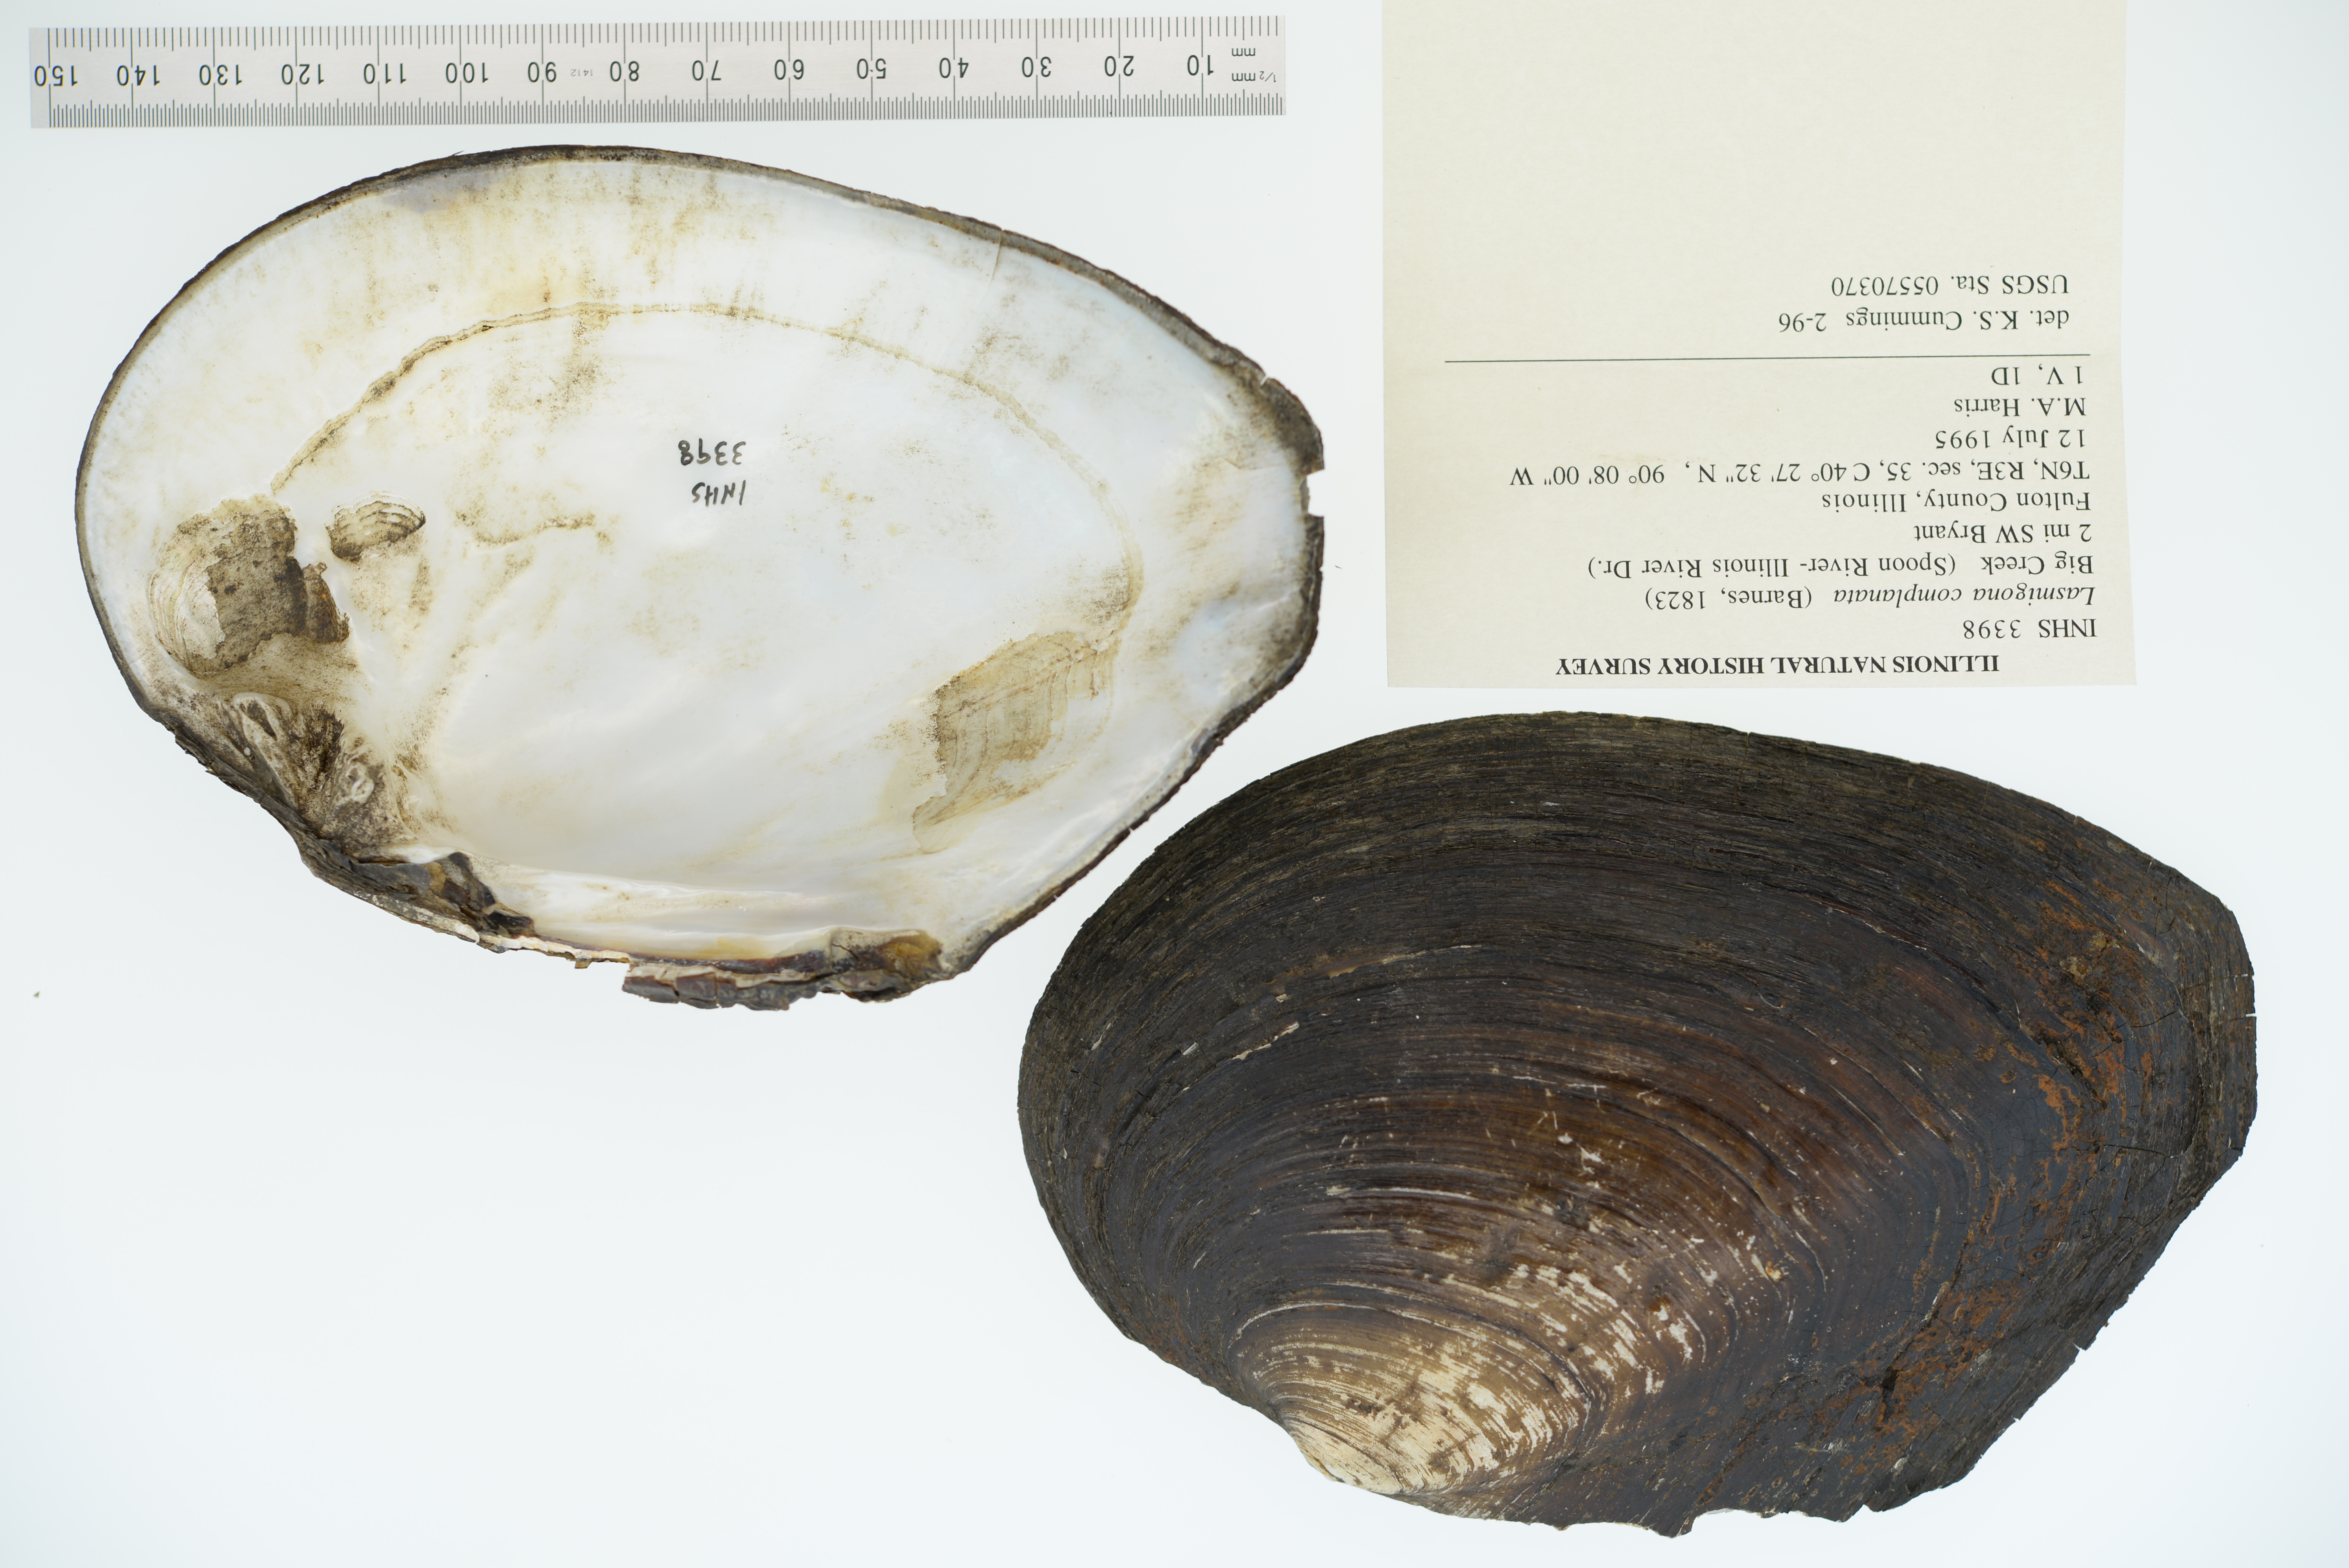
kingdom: Animalia
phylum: Mollusca
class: Bivalvia
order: Unionida
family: Unionidae
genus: Lasmigona
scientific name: Lasmigona complanata
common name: White heelsplitter
